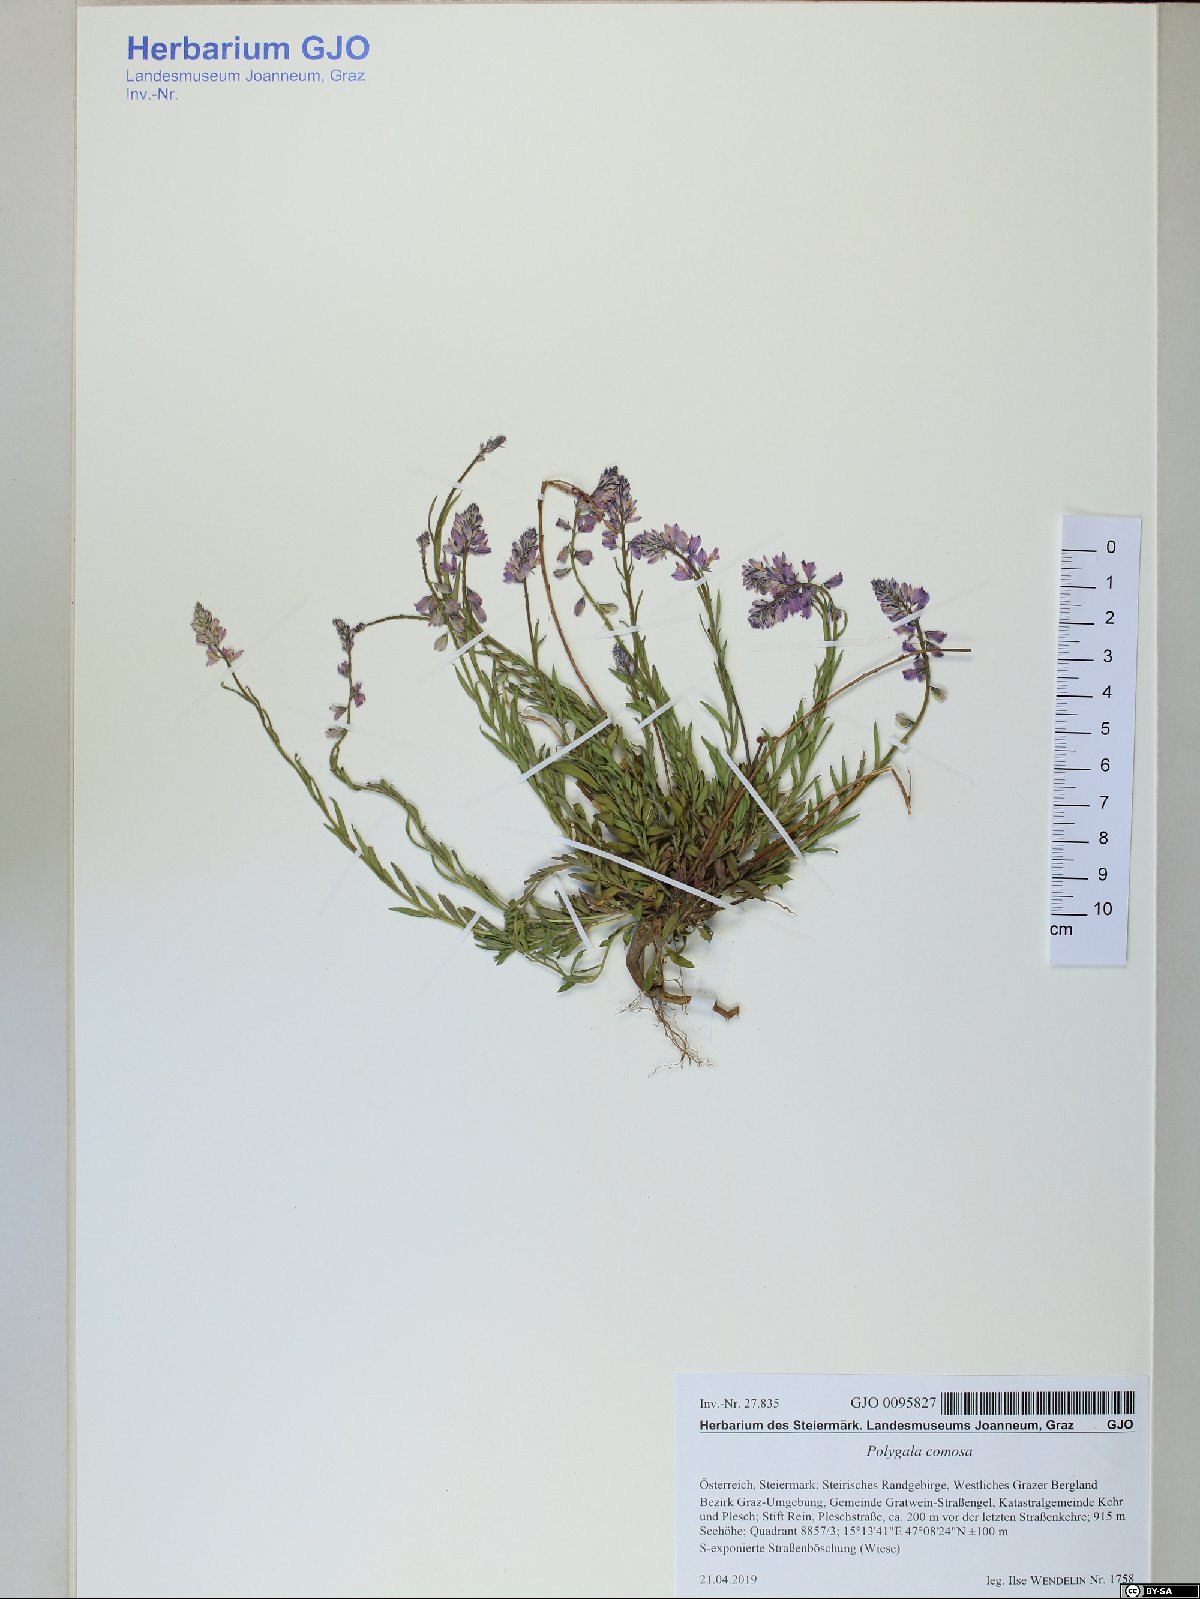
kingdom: Plantae
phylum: Tracheophyta
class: Magnoliopsida
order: Fabales
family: Polygalaceae
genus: Polygala
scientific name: Polygala comosa
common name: Tufted milkwort
